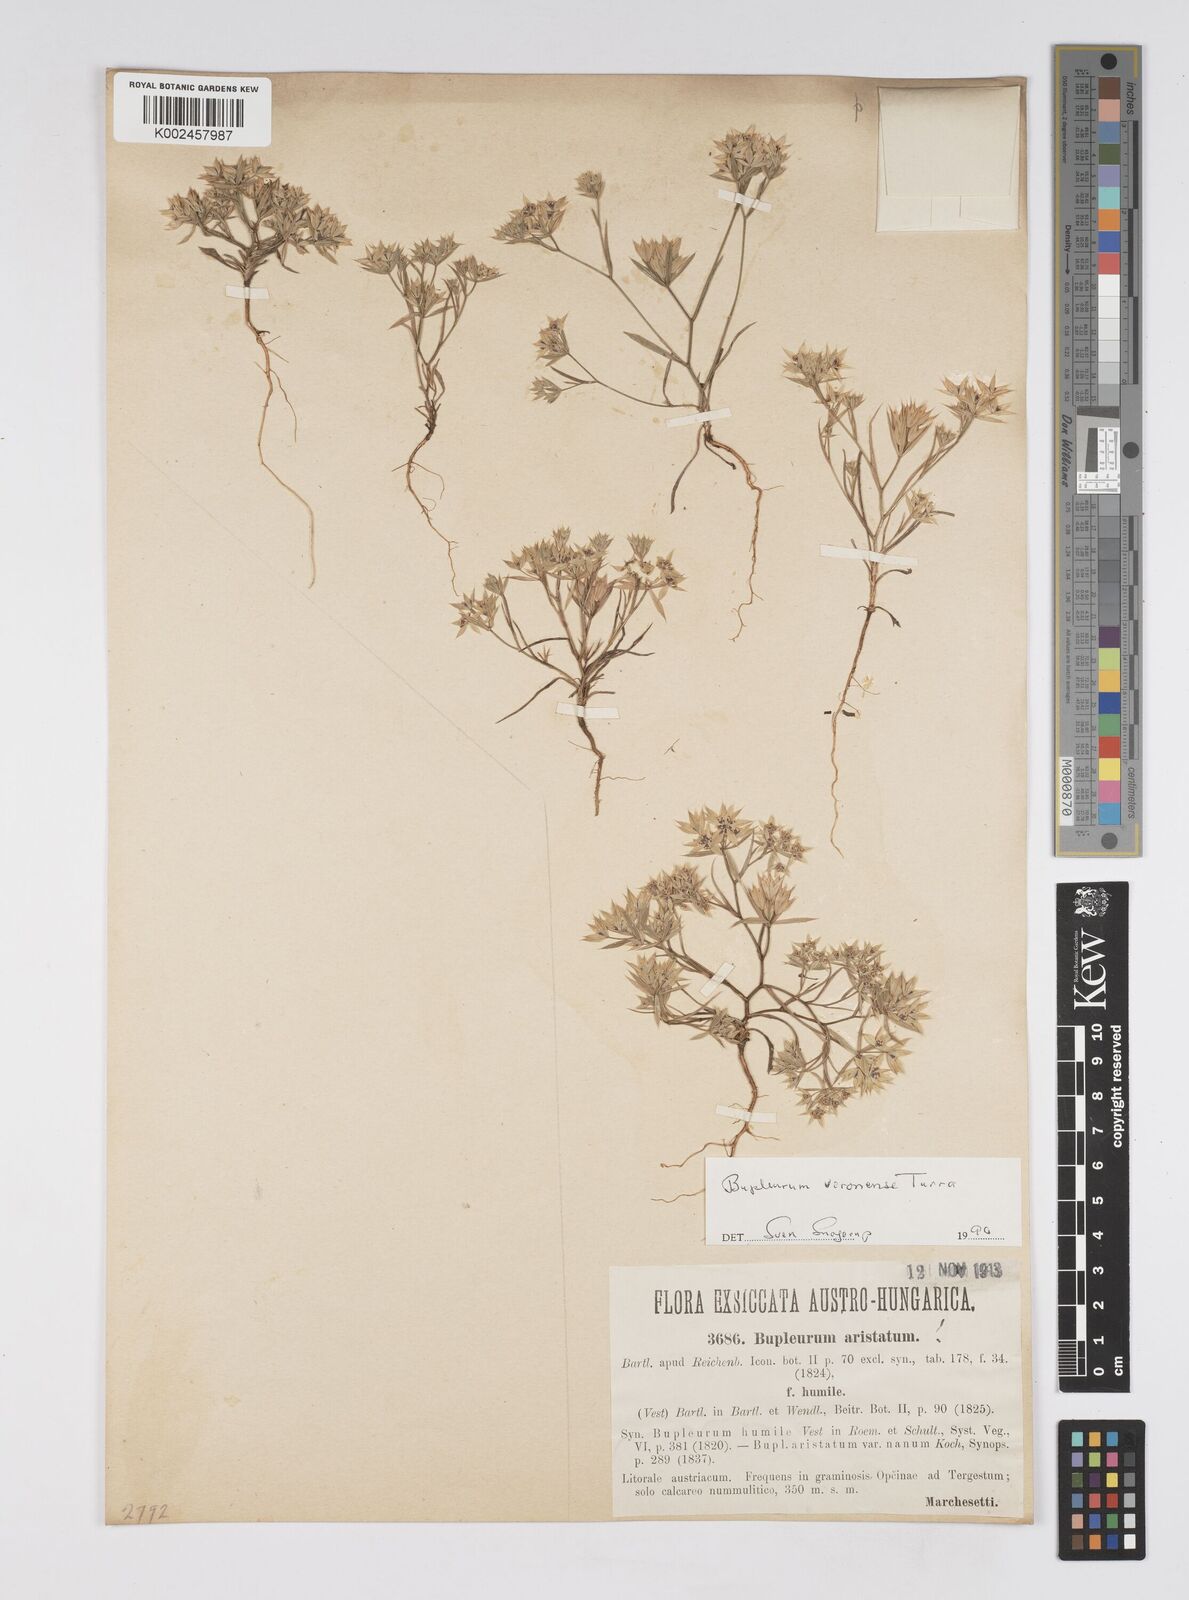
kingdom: Plantae
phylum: Tracheophyta
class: Magnoliopsida
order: Apiales
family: Apiaceae
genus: Bupleurum
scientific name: Bupleurum glumaceum
